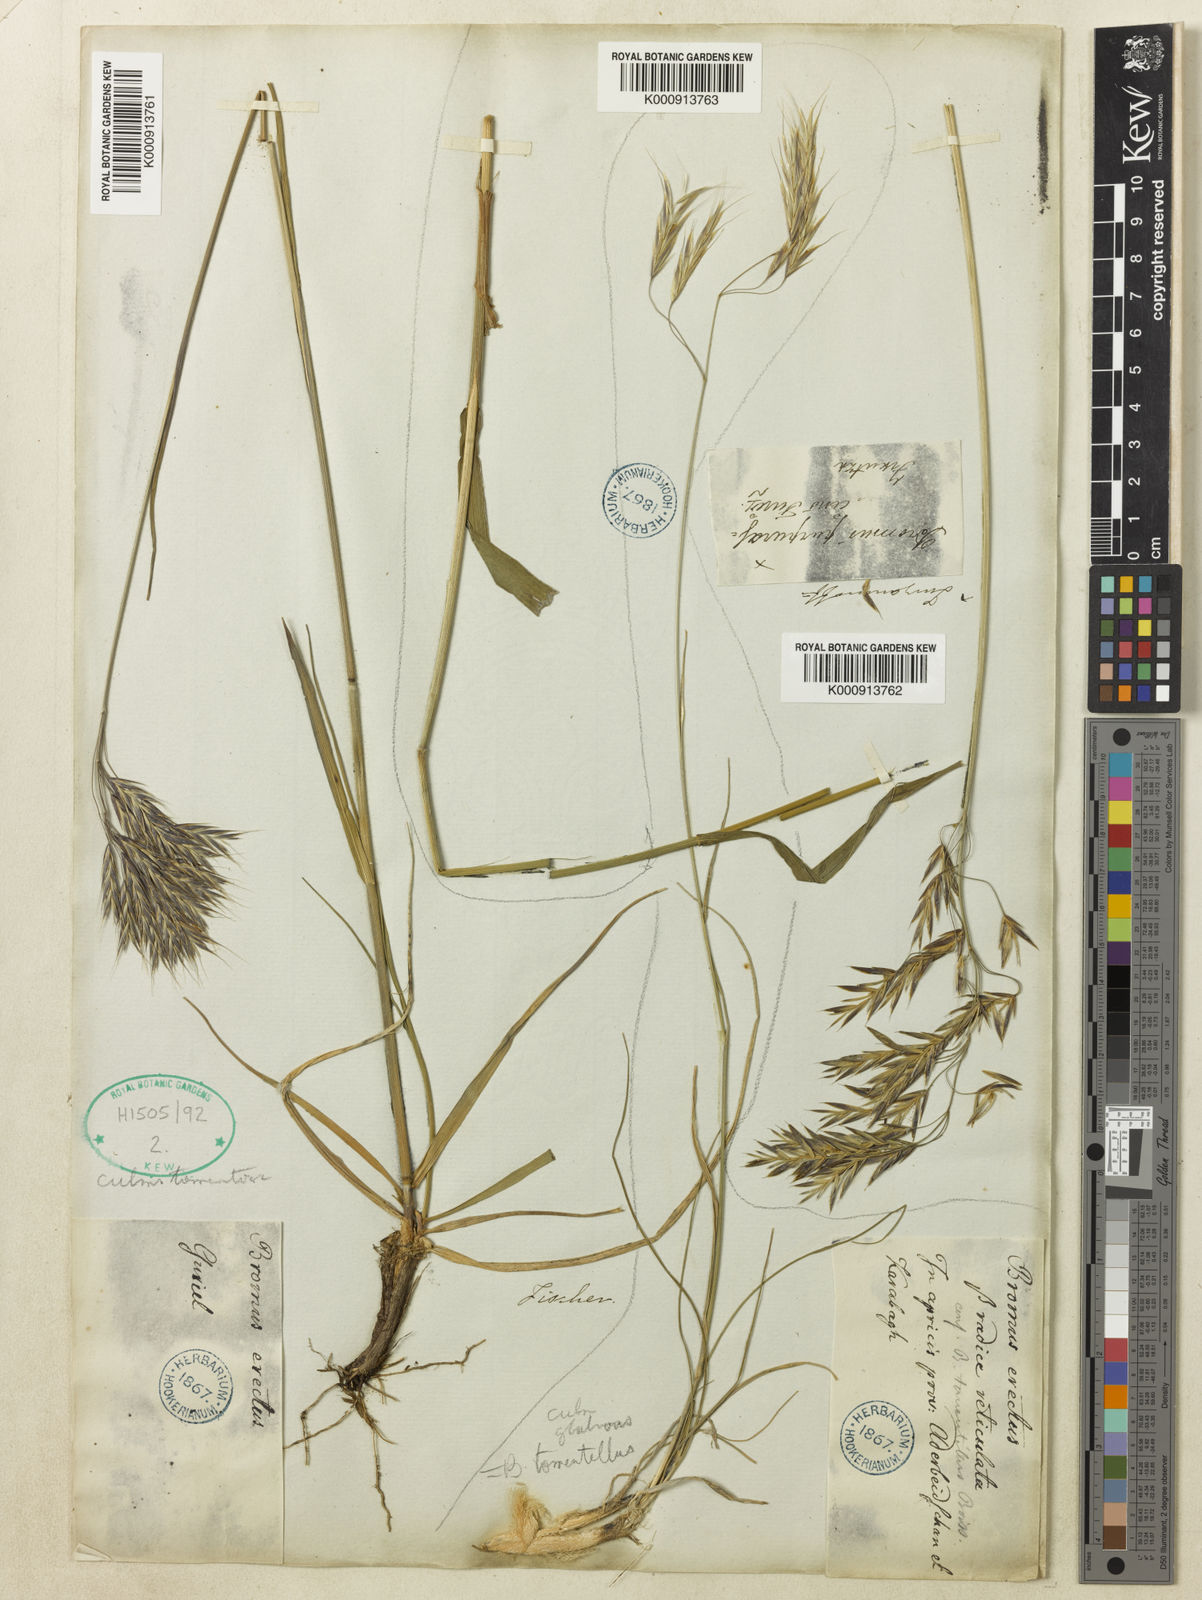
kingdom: Plantae
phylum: Tracheophyta
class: Liliopsida
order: Poales
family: Poaceae
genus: Bromus
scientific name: Bromus variegatus
